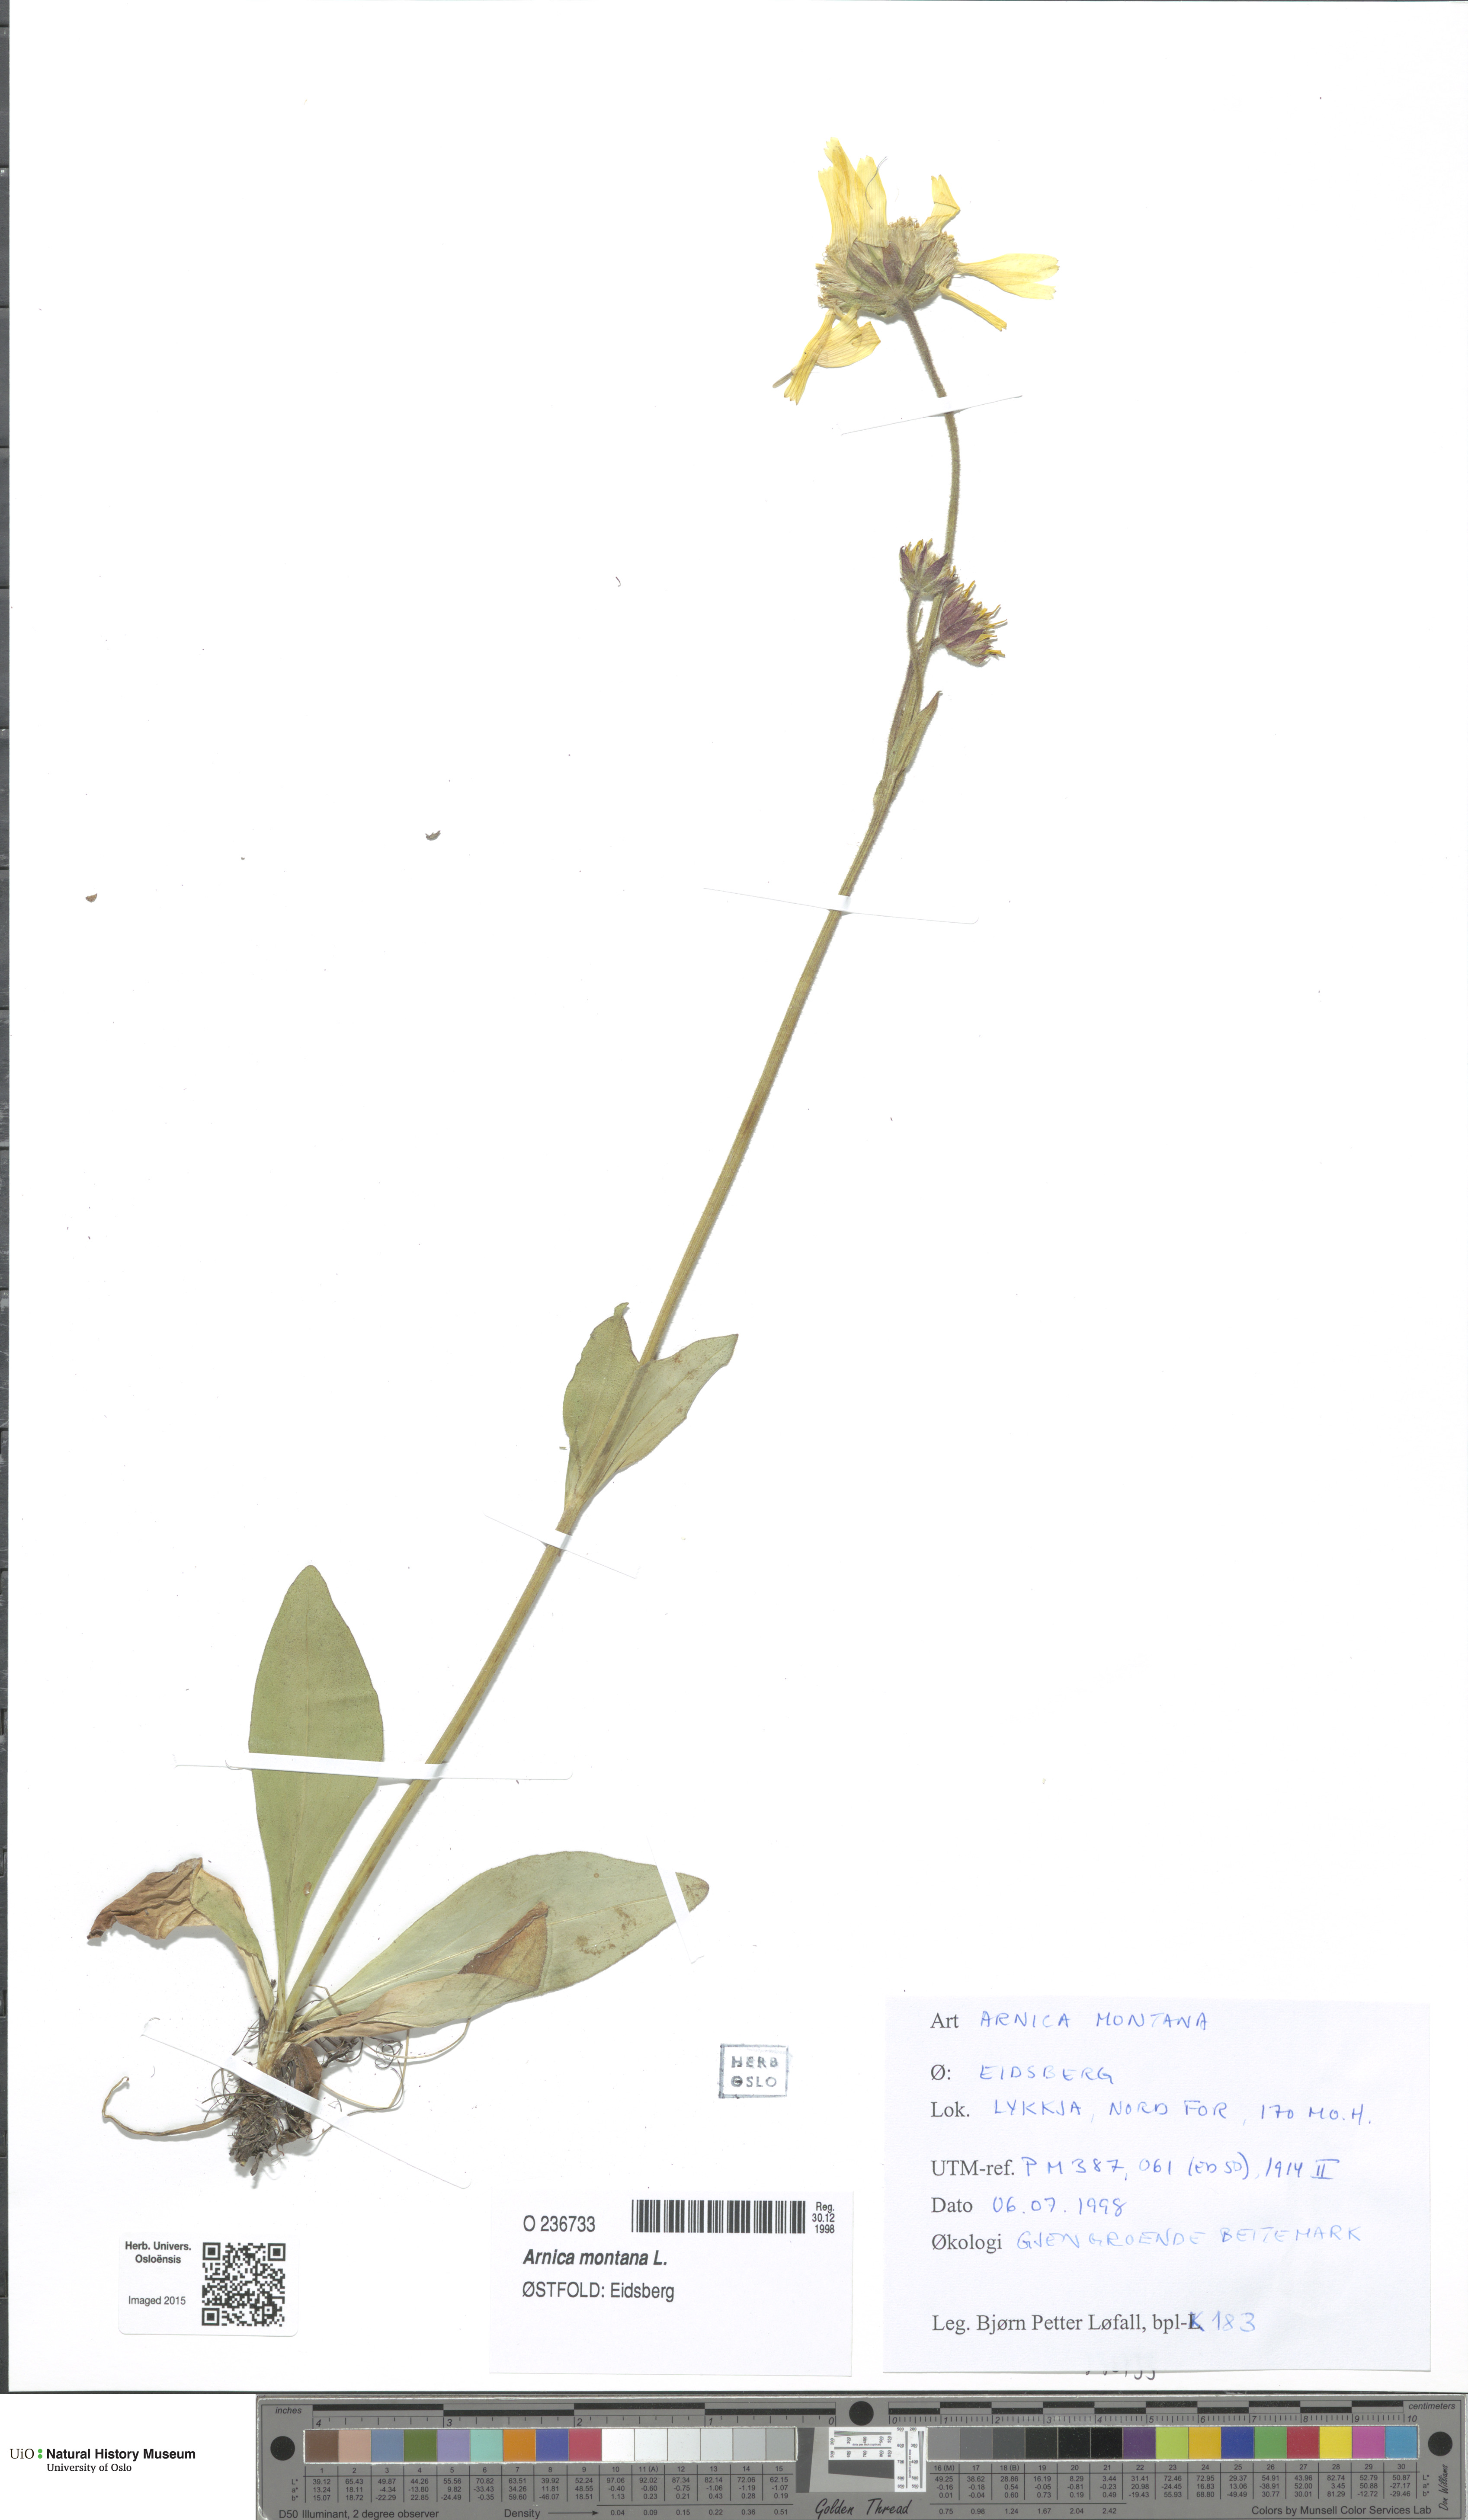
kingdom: Plantae
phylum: Tracheophyta
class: Magnoliopsida
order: Asterales
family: Asteraceae
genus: Arnica
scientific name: Arnica montana
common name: Leopard's bane
